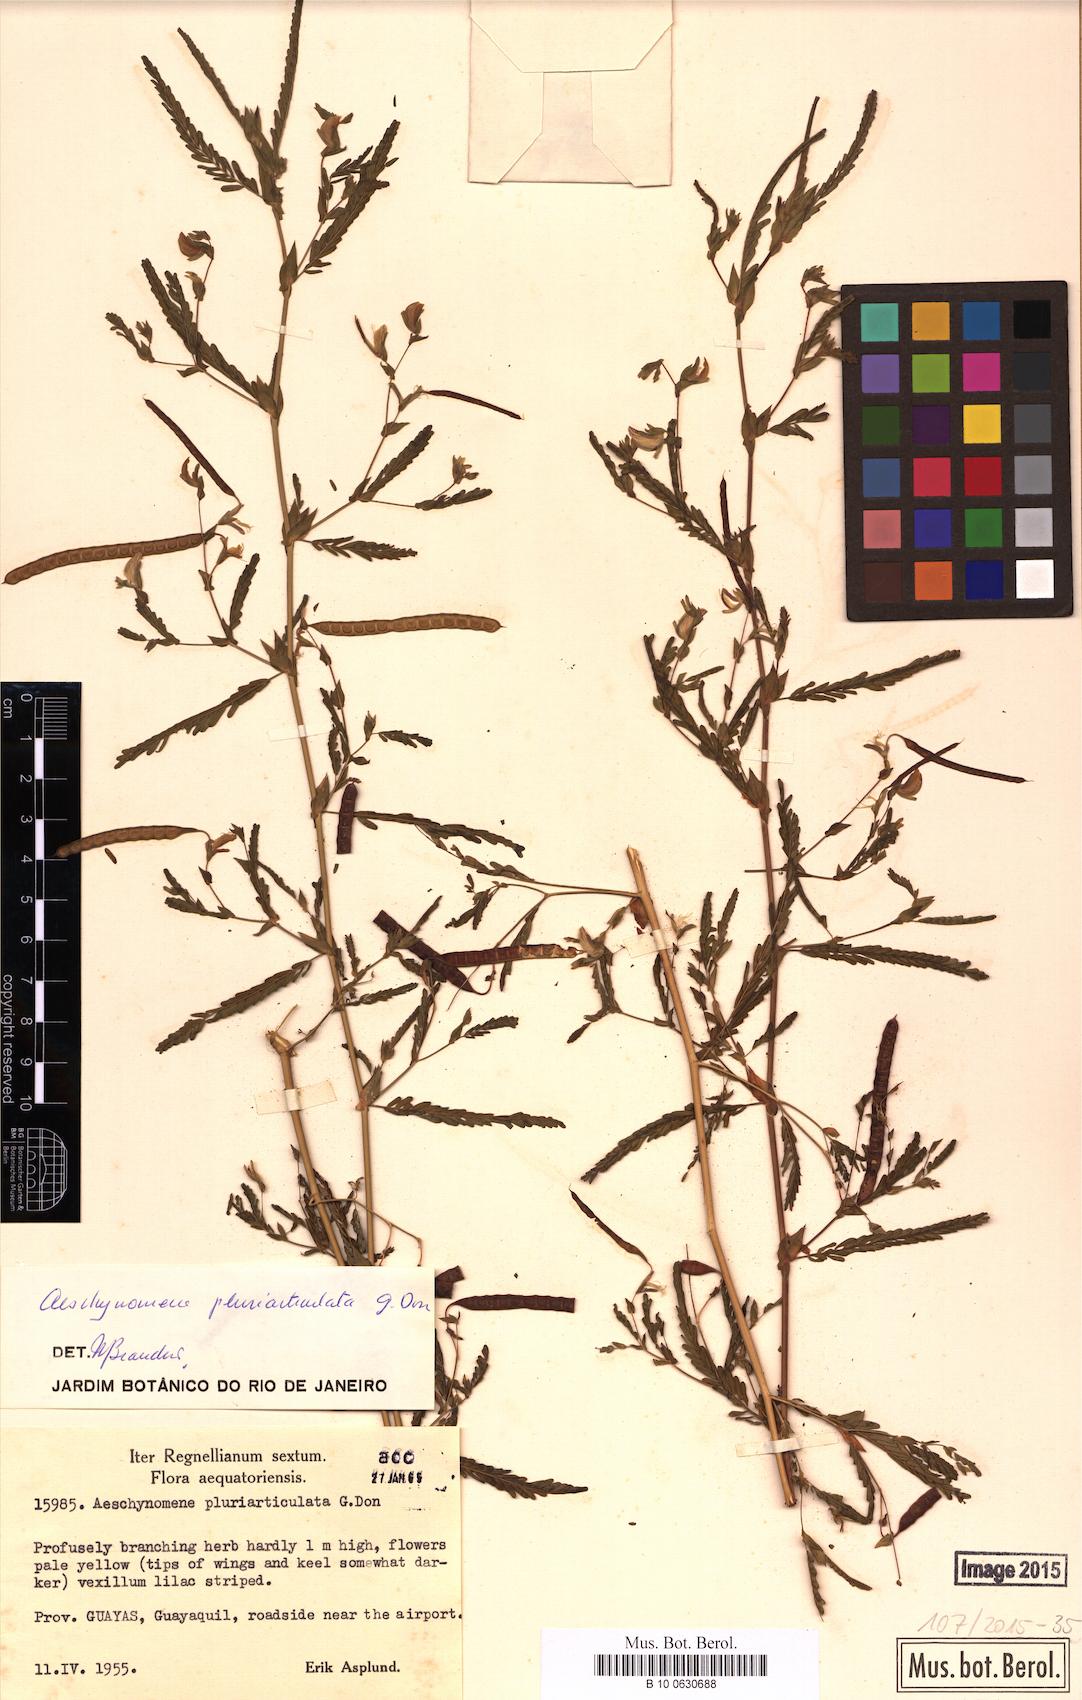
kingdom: Plantae
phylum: Tracheophyta
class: Magnoliopsida
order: Fabales
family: Fabaceae
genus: Aeschynomene
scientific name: Aeschynomene pluriarticulata
